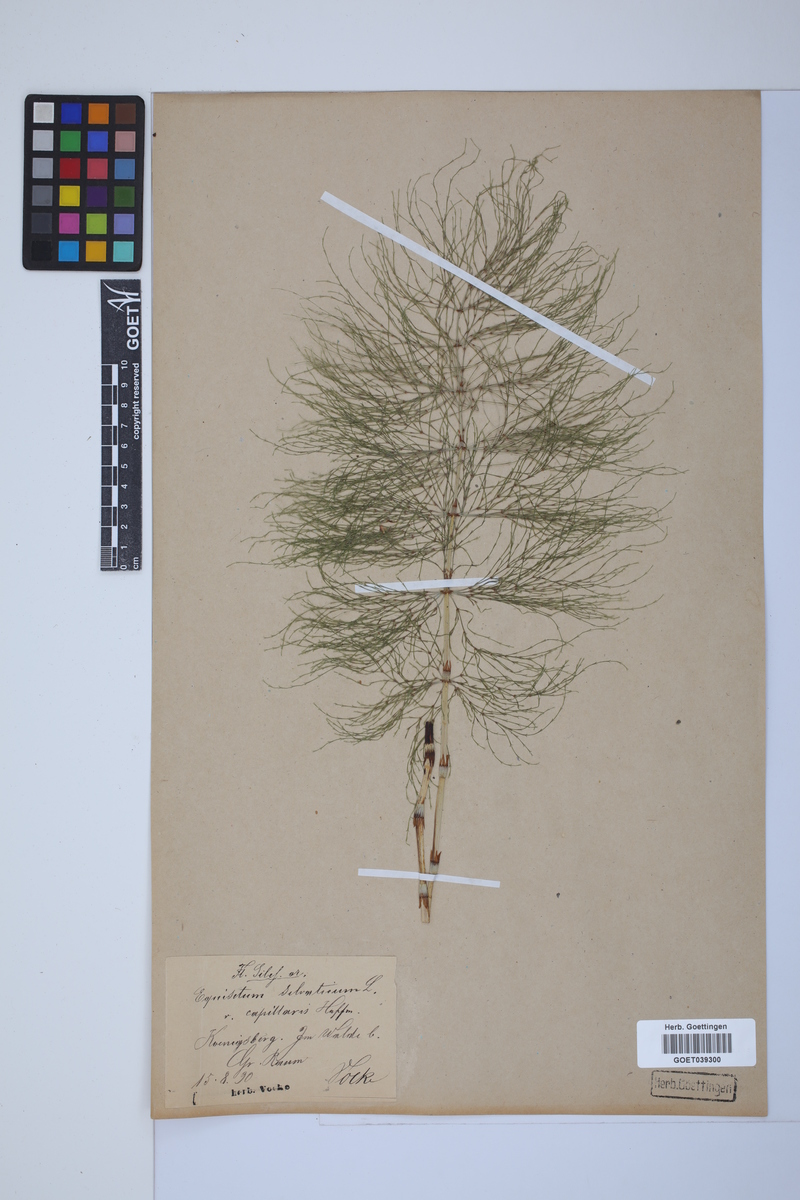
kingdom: Plantae
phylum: Tracheophyta
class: Polypodiopsida
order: Equisetales
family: Equisetaceae
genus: Equisetum
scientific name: Equisetum sylvaticum
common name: Wood horsetail
